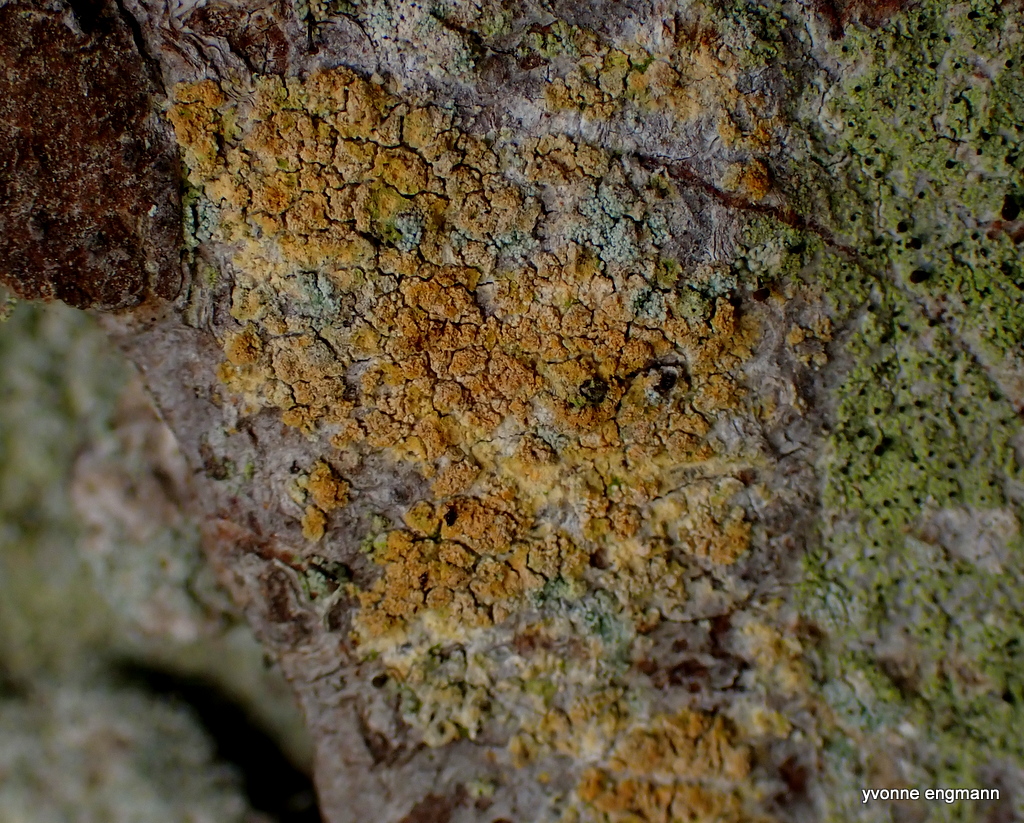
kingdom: Fungi
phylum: Ascomycota
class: Coniocybomycetes
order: Coniocybales
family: Coniocybaceae
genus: Chaenotheca
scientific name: Chaenotheca ferruginea
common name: rustbrun knappenålslav
